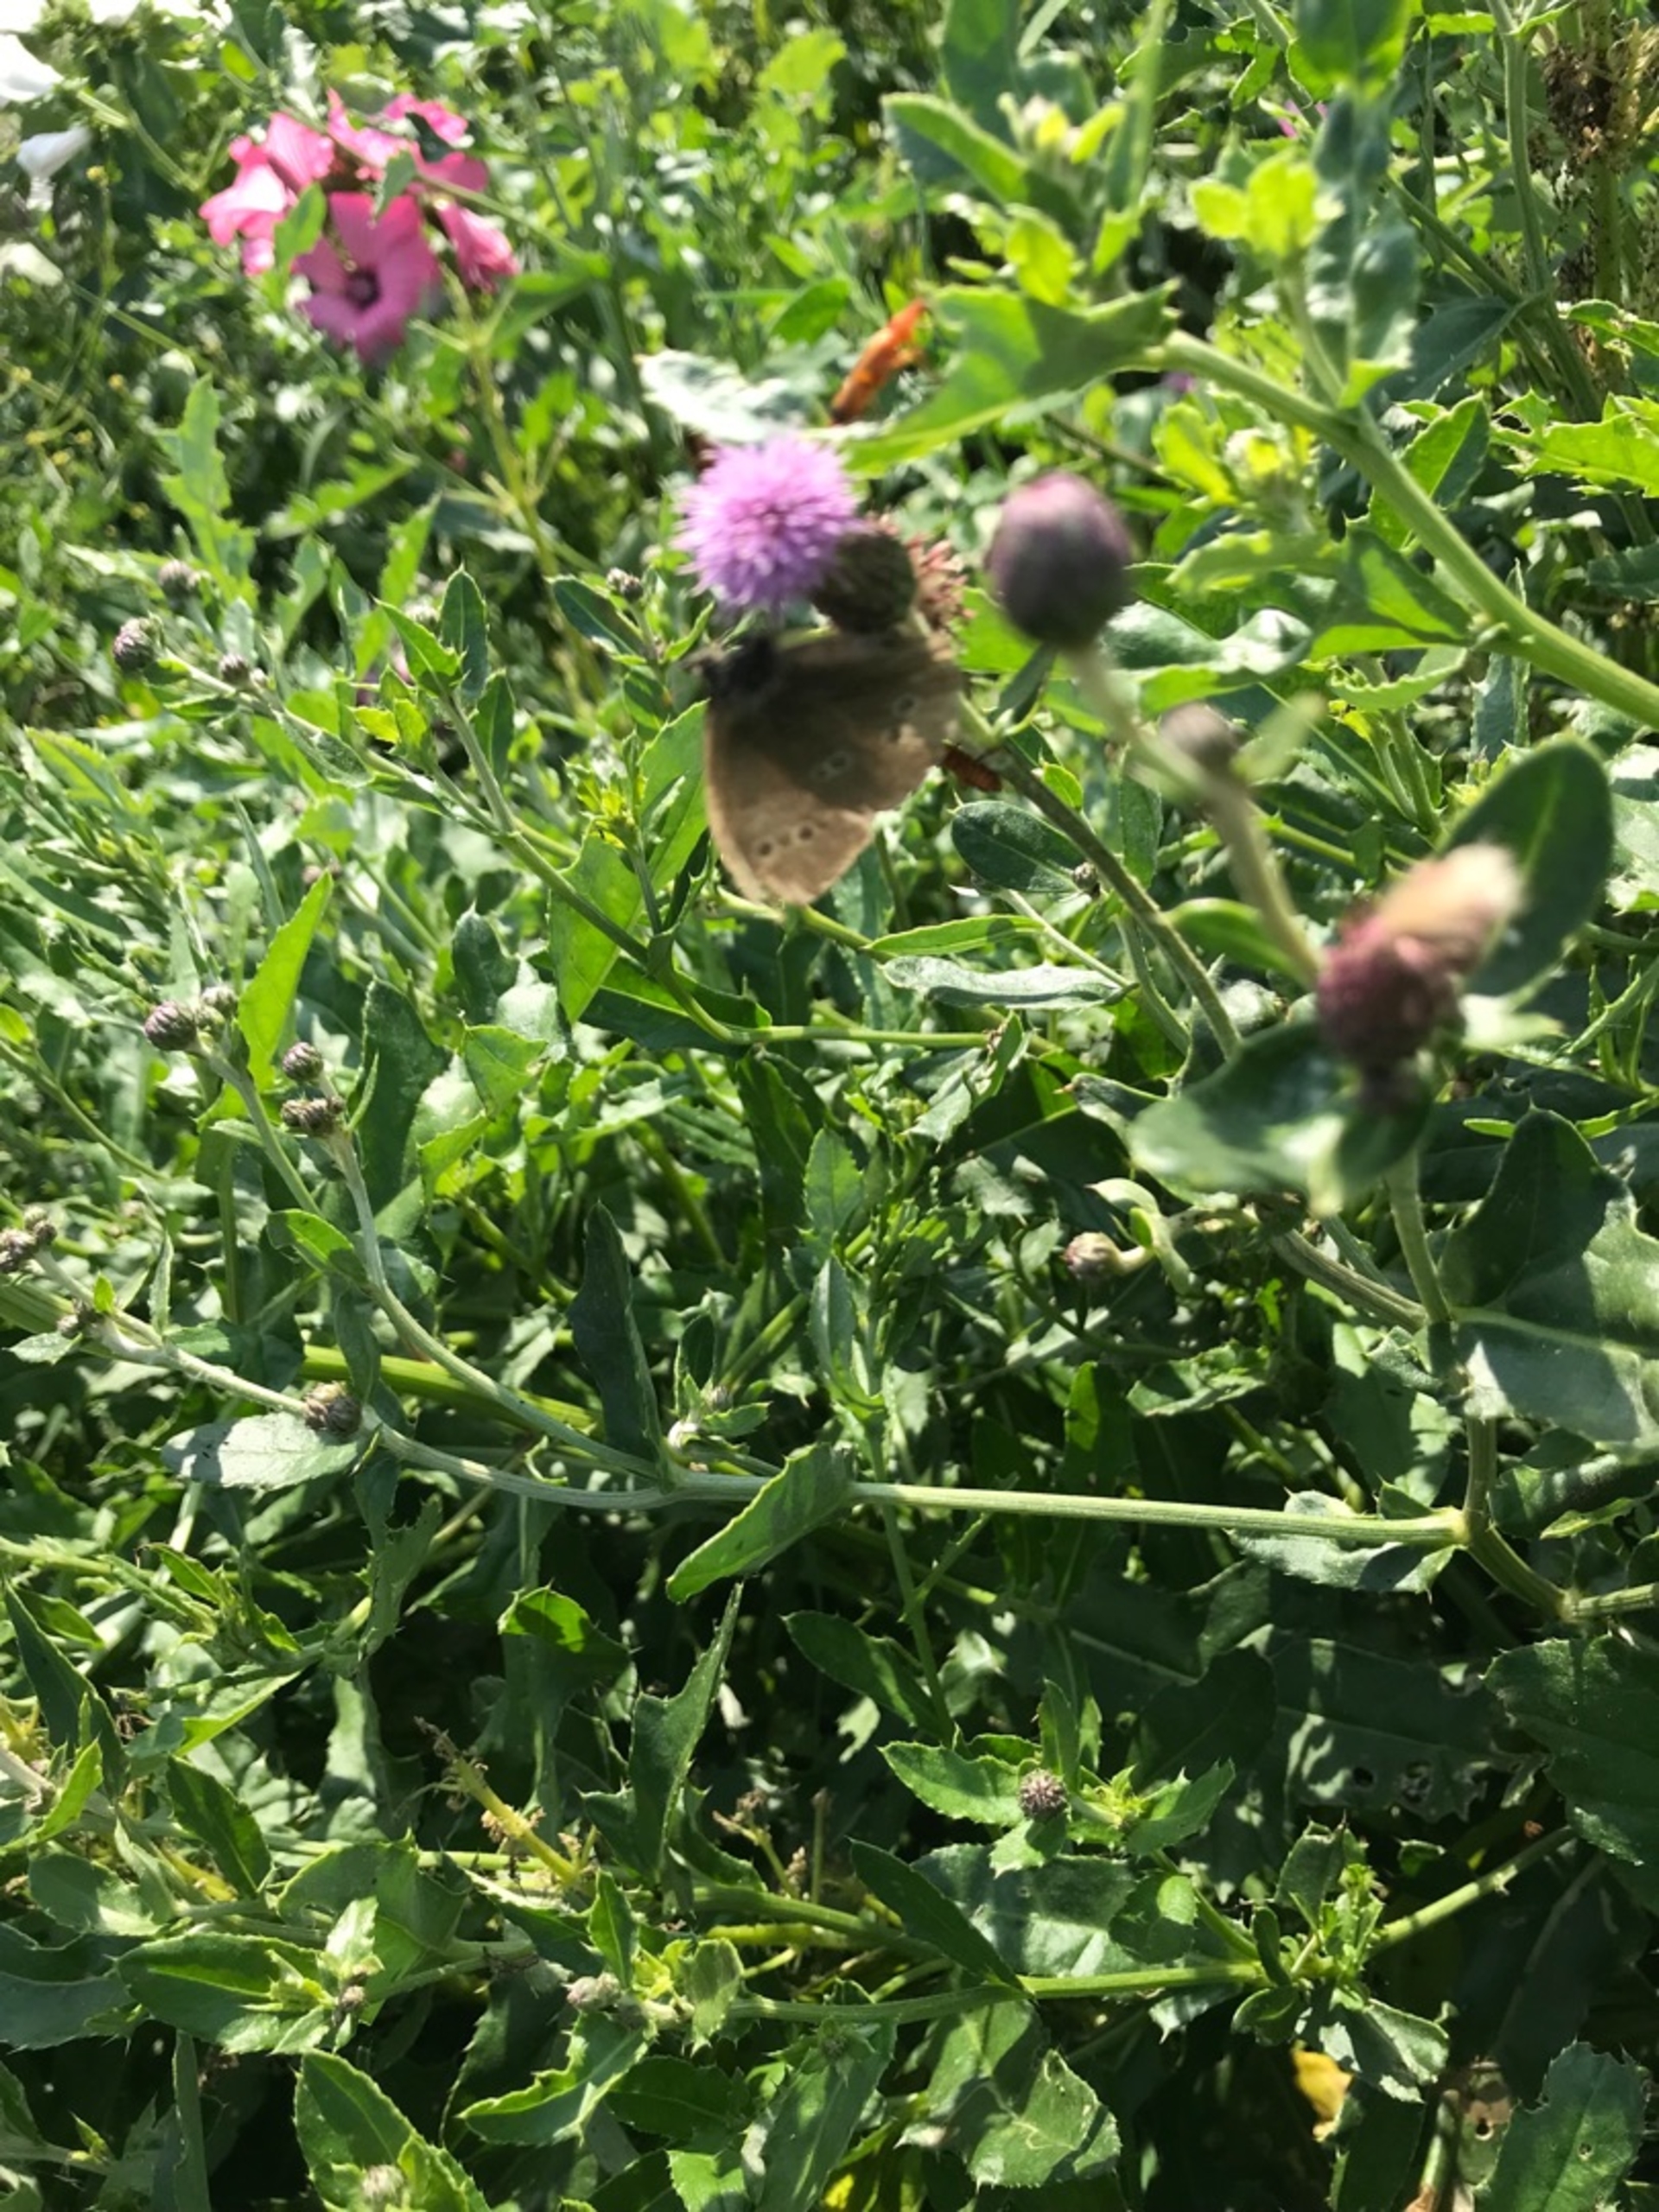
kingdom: Animalia
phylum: Arthropoda
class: Insecta
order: Lepidoptera
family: Nymphalidae
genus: Aphantopus
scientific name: Aphantopus hyperantus
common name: Engrandøje
